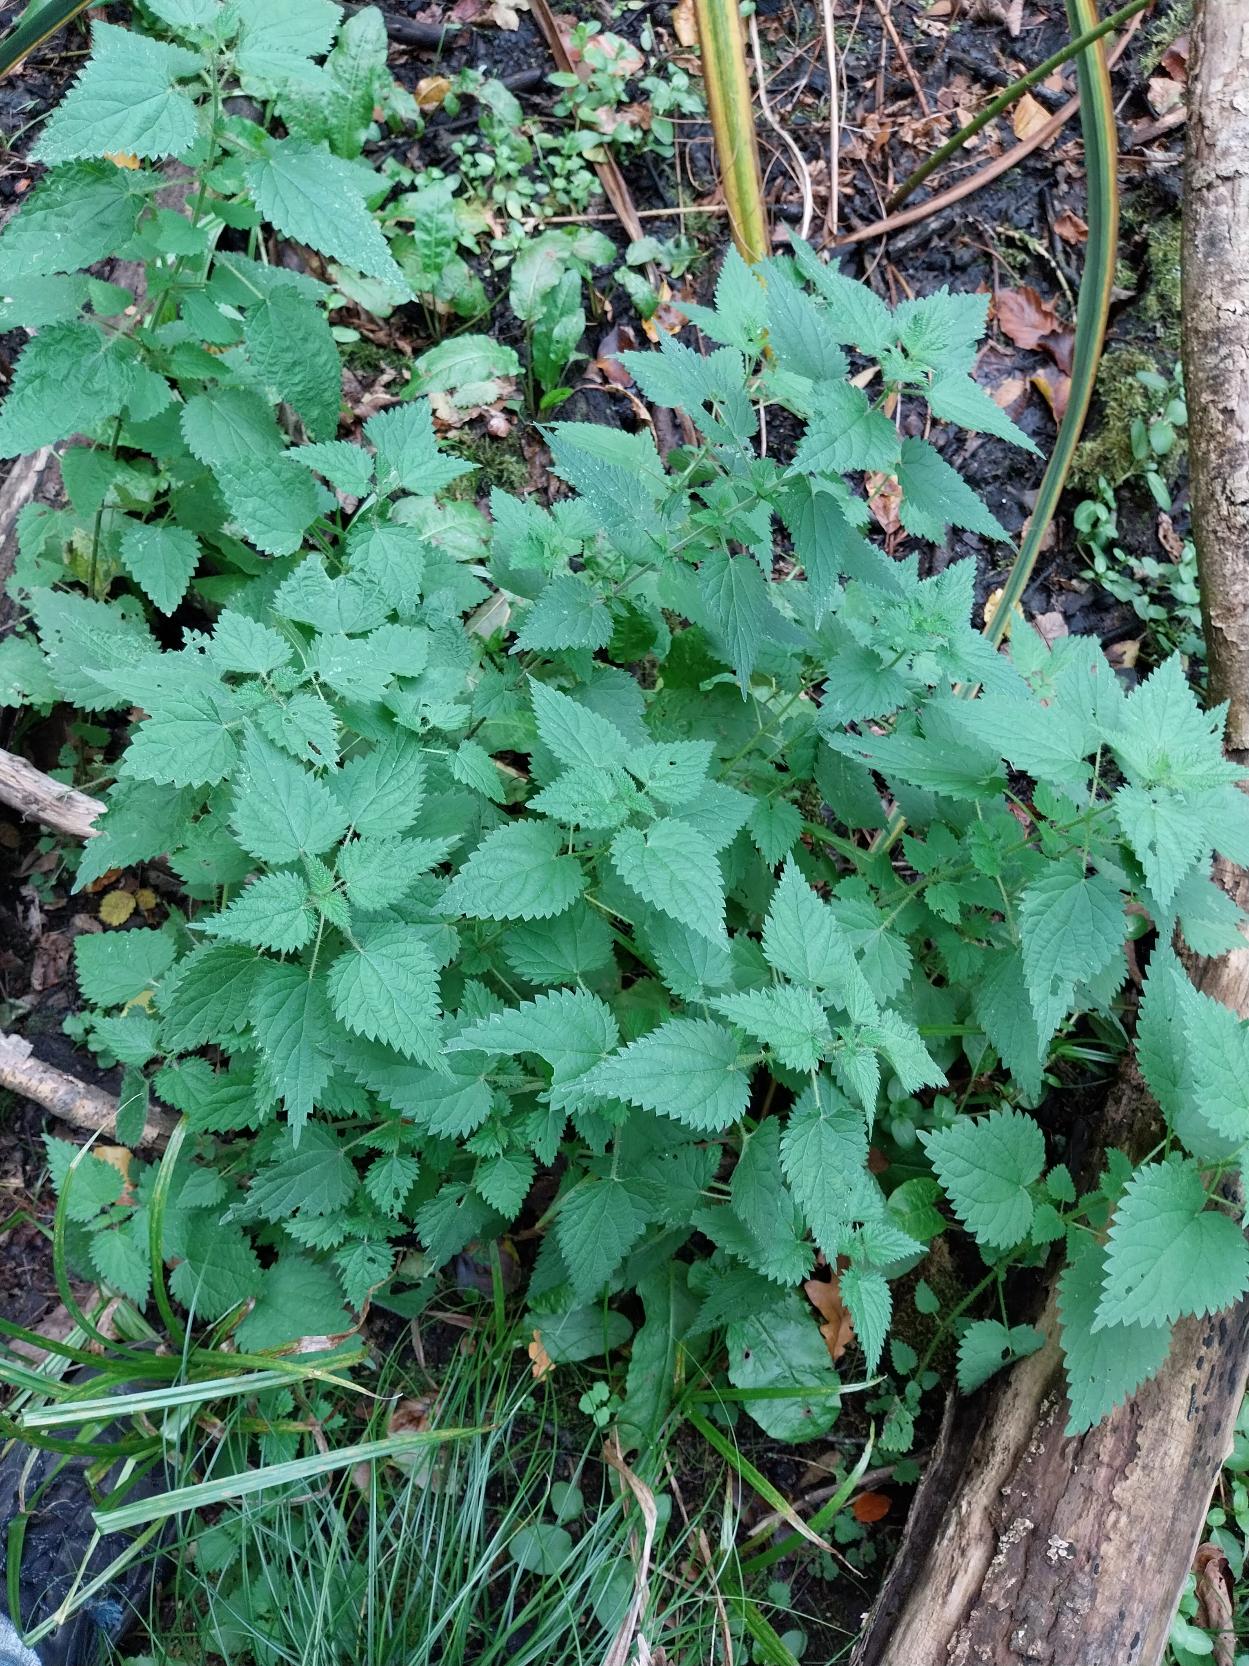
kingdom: Plantae
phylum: Tracheophyta
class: Magnoliopsida
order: Rosales
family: Urticaceae
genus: Urtica
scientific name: Urtica dioica
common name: Stor nælde
